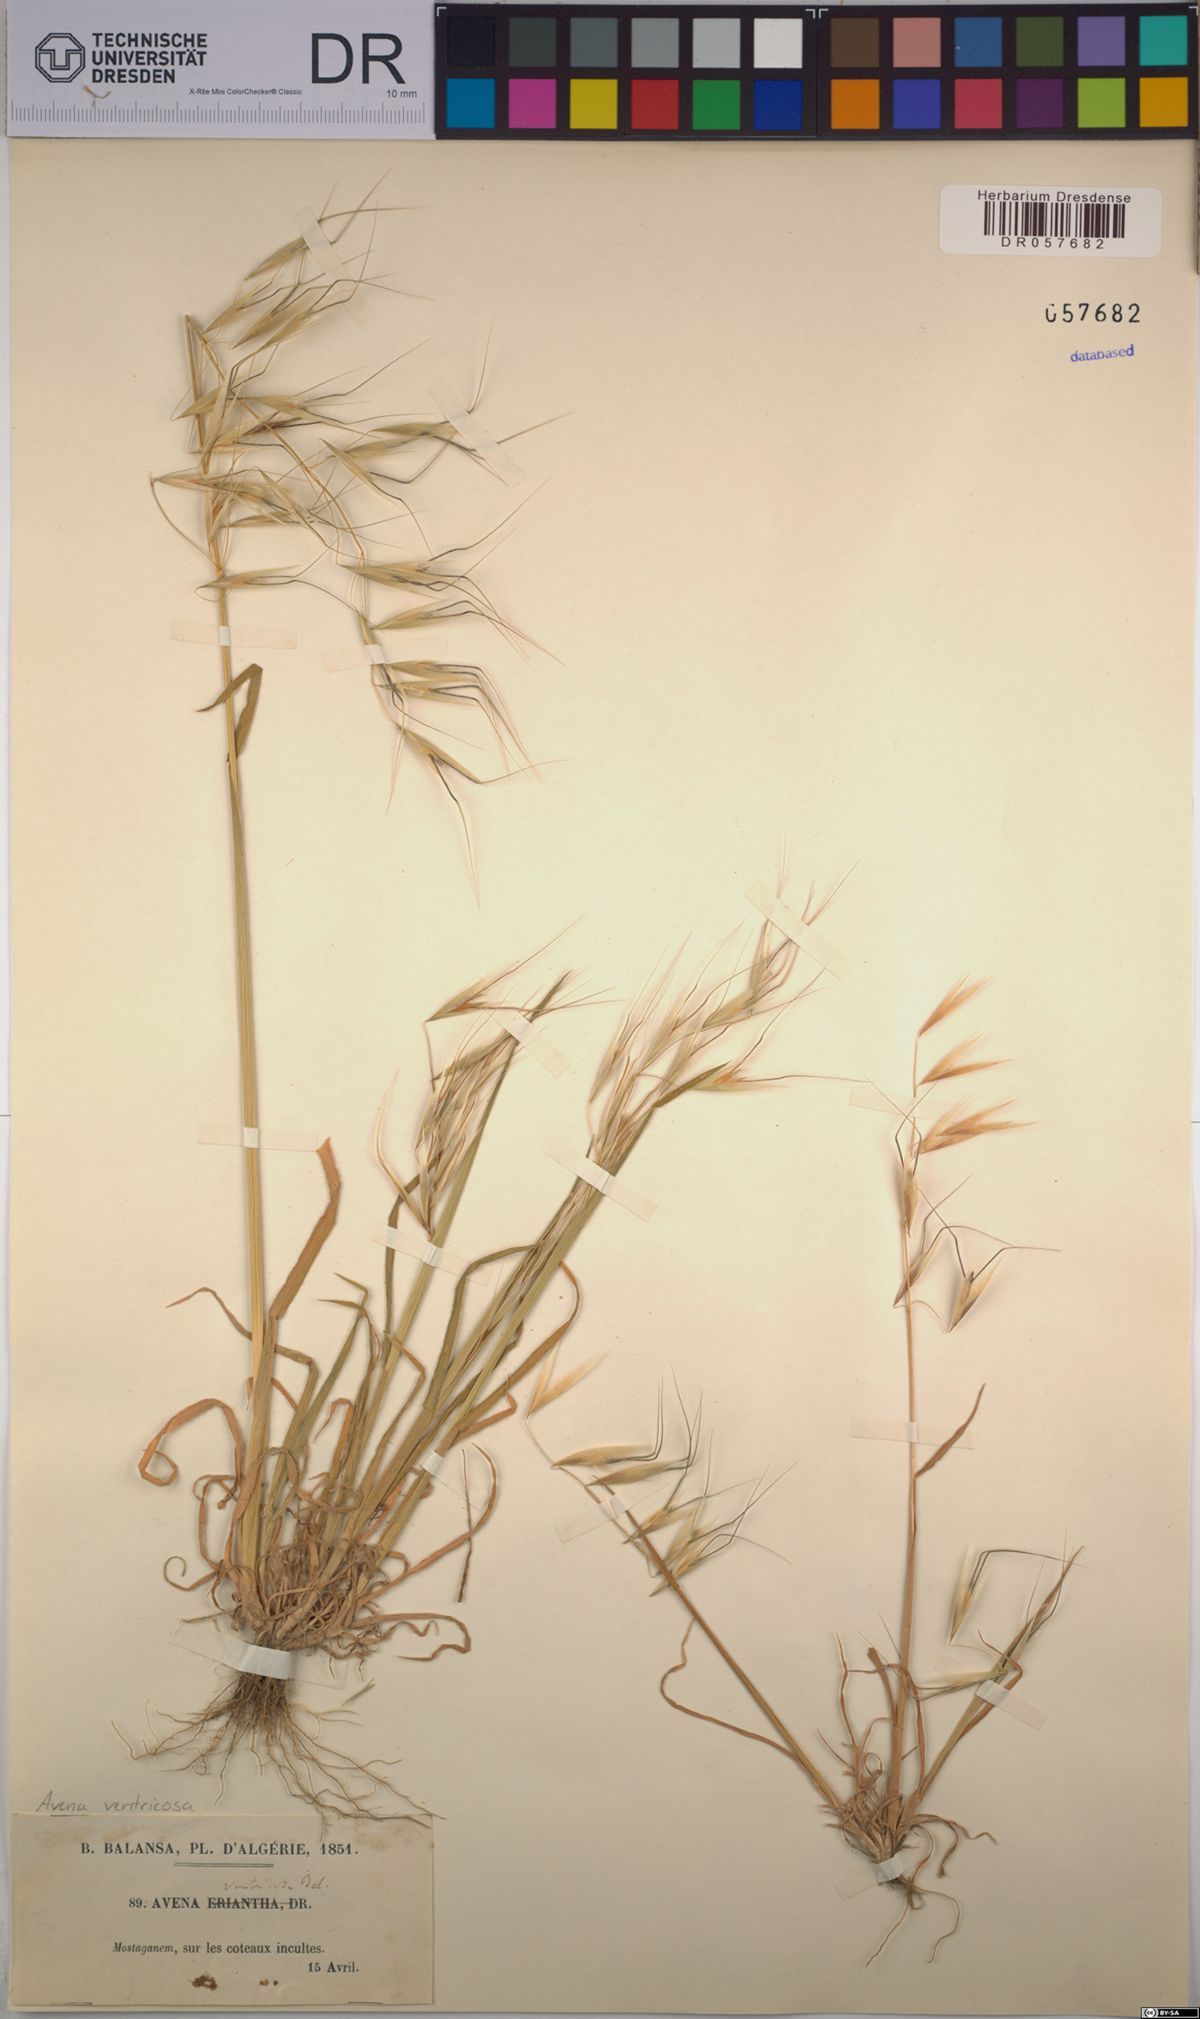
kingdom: Plantae
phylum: Tracheophyta
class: Liliopsida
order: Poales
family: Poaceae
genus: Avena
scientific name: Avena ventricosa
